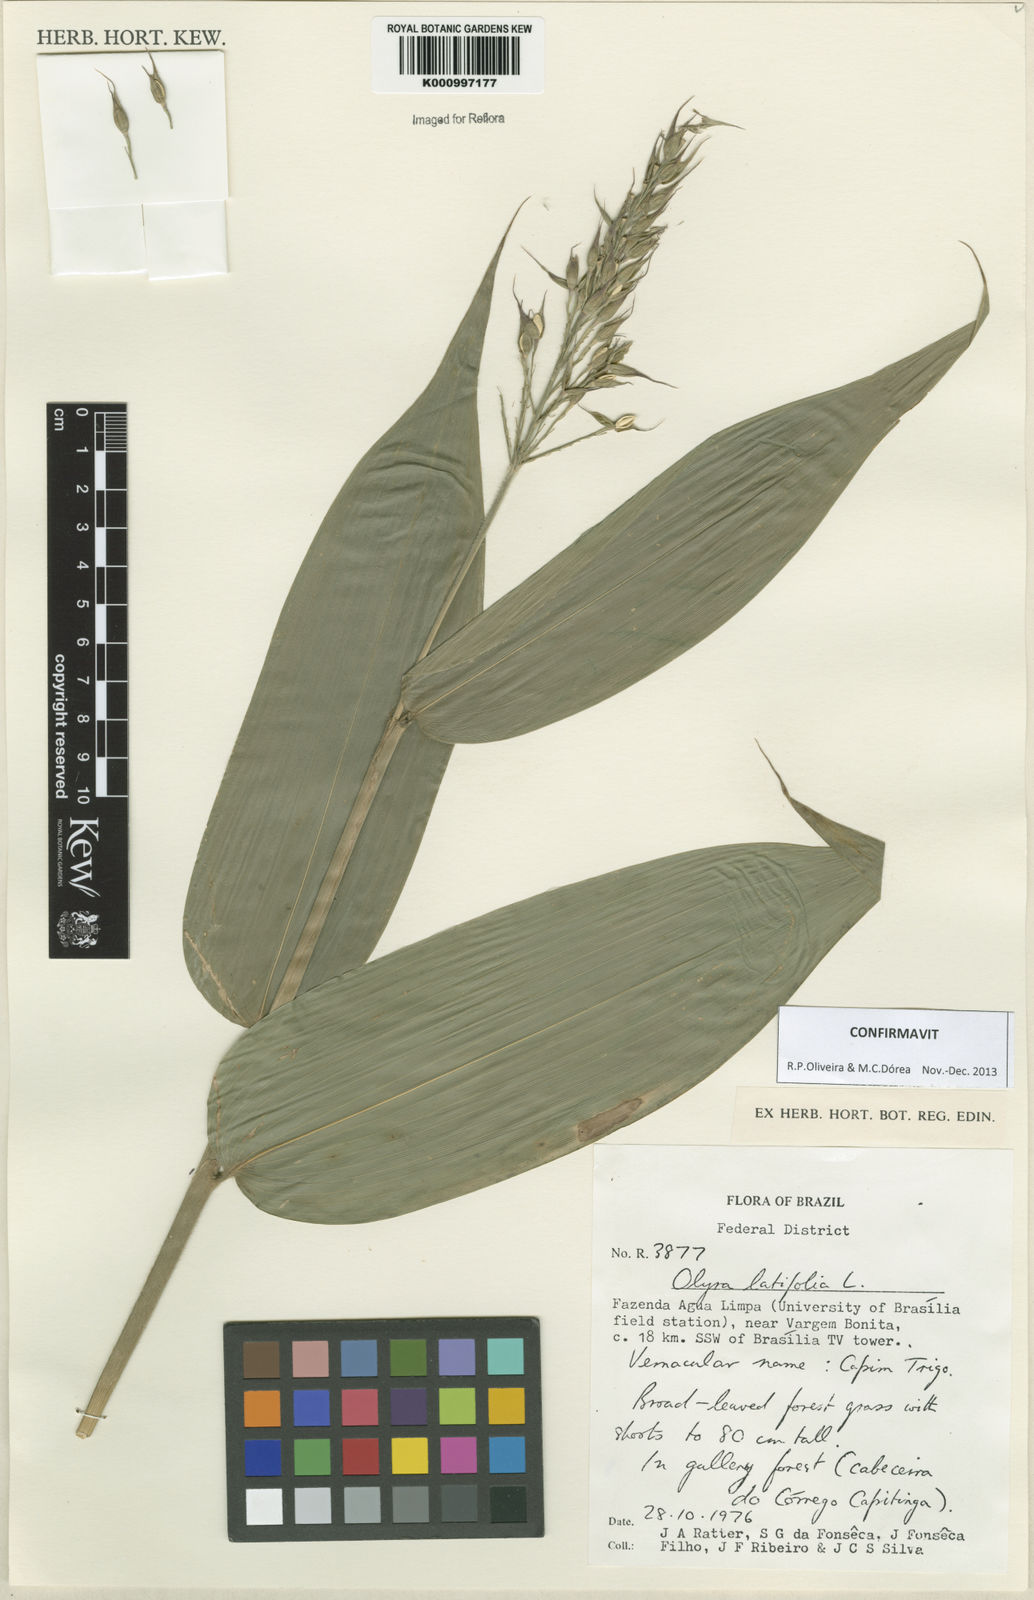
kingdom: Plantae
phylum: Tracheophyta
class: Liliopsida
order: Poales
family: Poaceae
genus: Olyra
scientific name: Olyra latifolia
